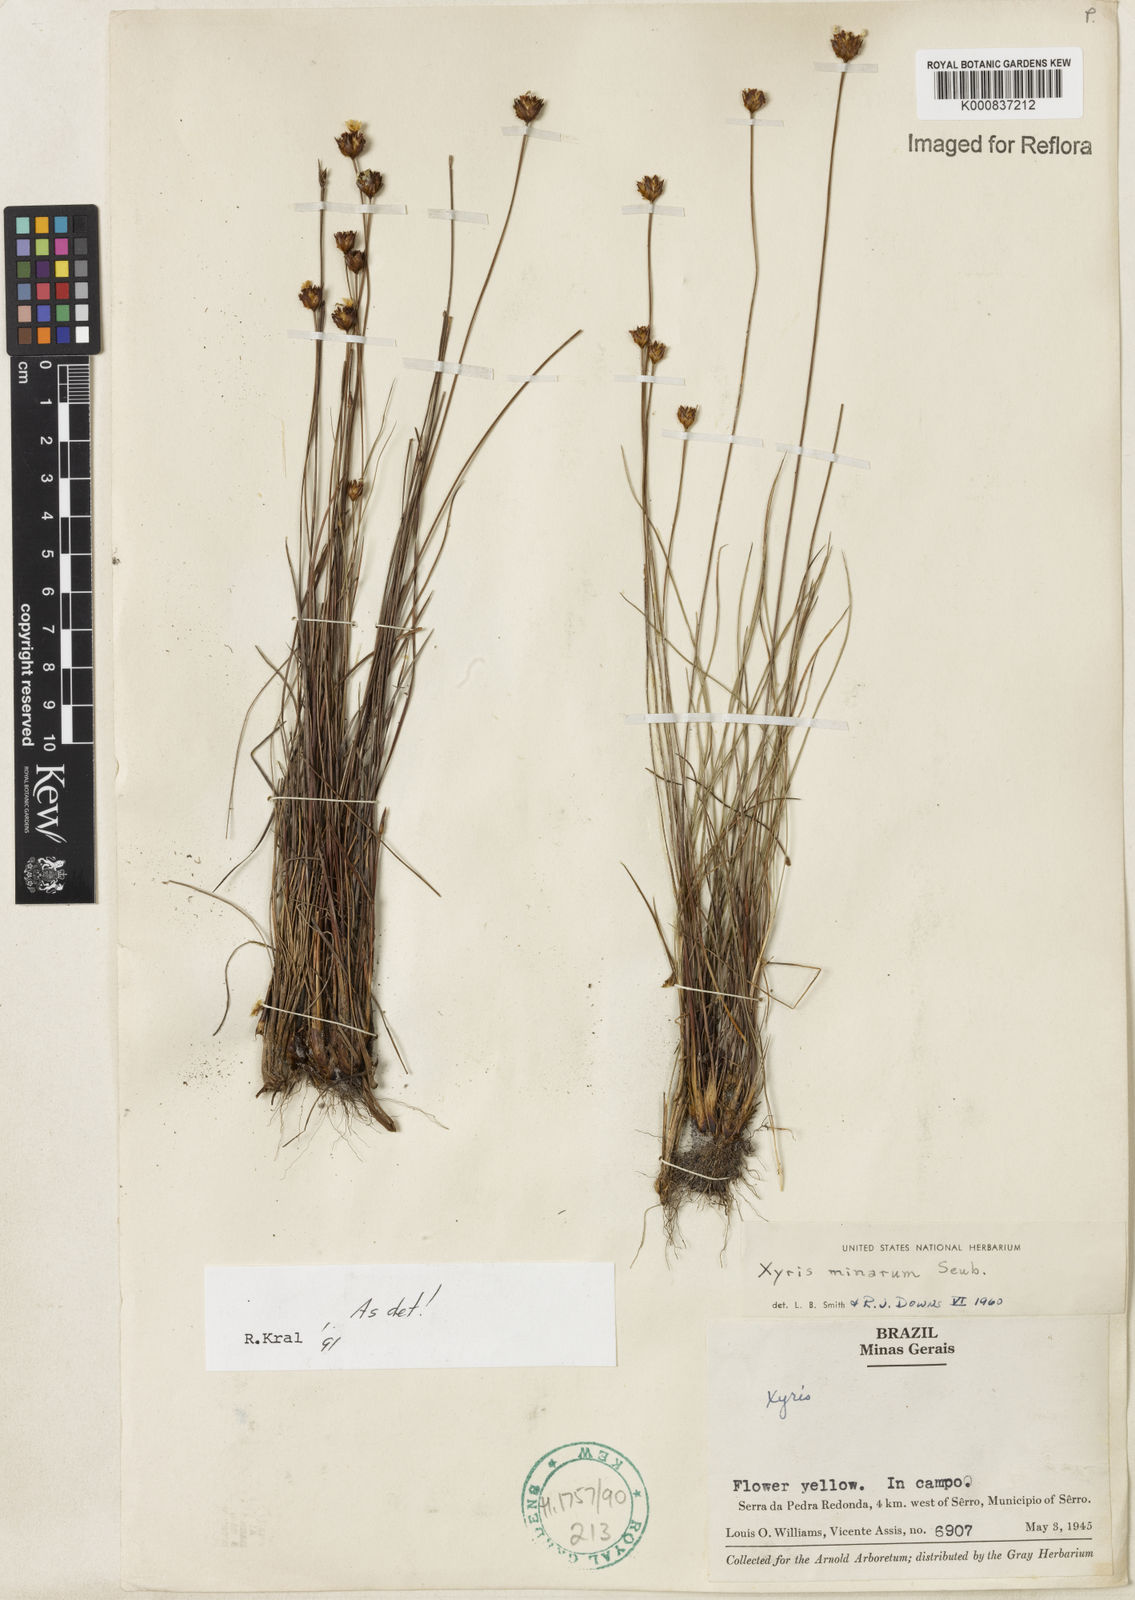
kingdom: Plantae
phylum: Tracheophyta
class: Liliopsida
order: Poales
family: Xyridaceae
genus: Xyris
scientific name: Xyris minarum
